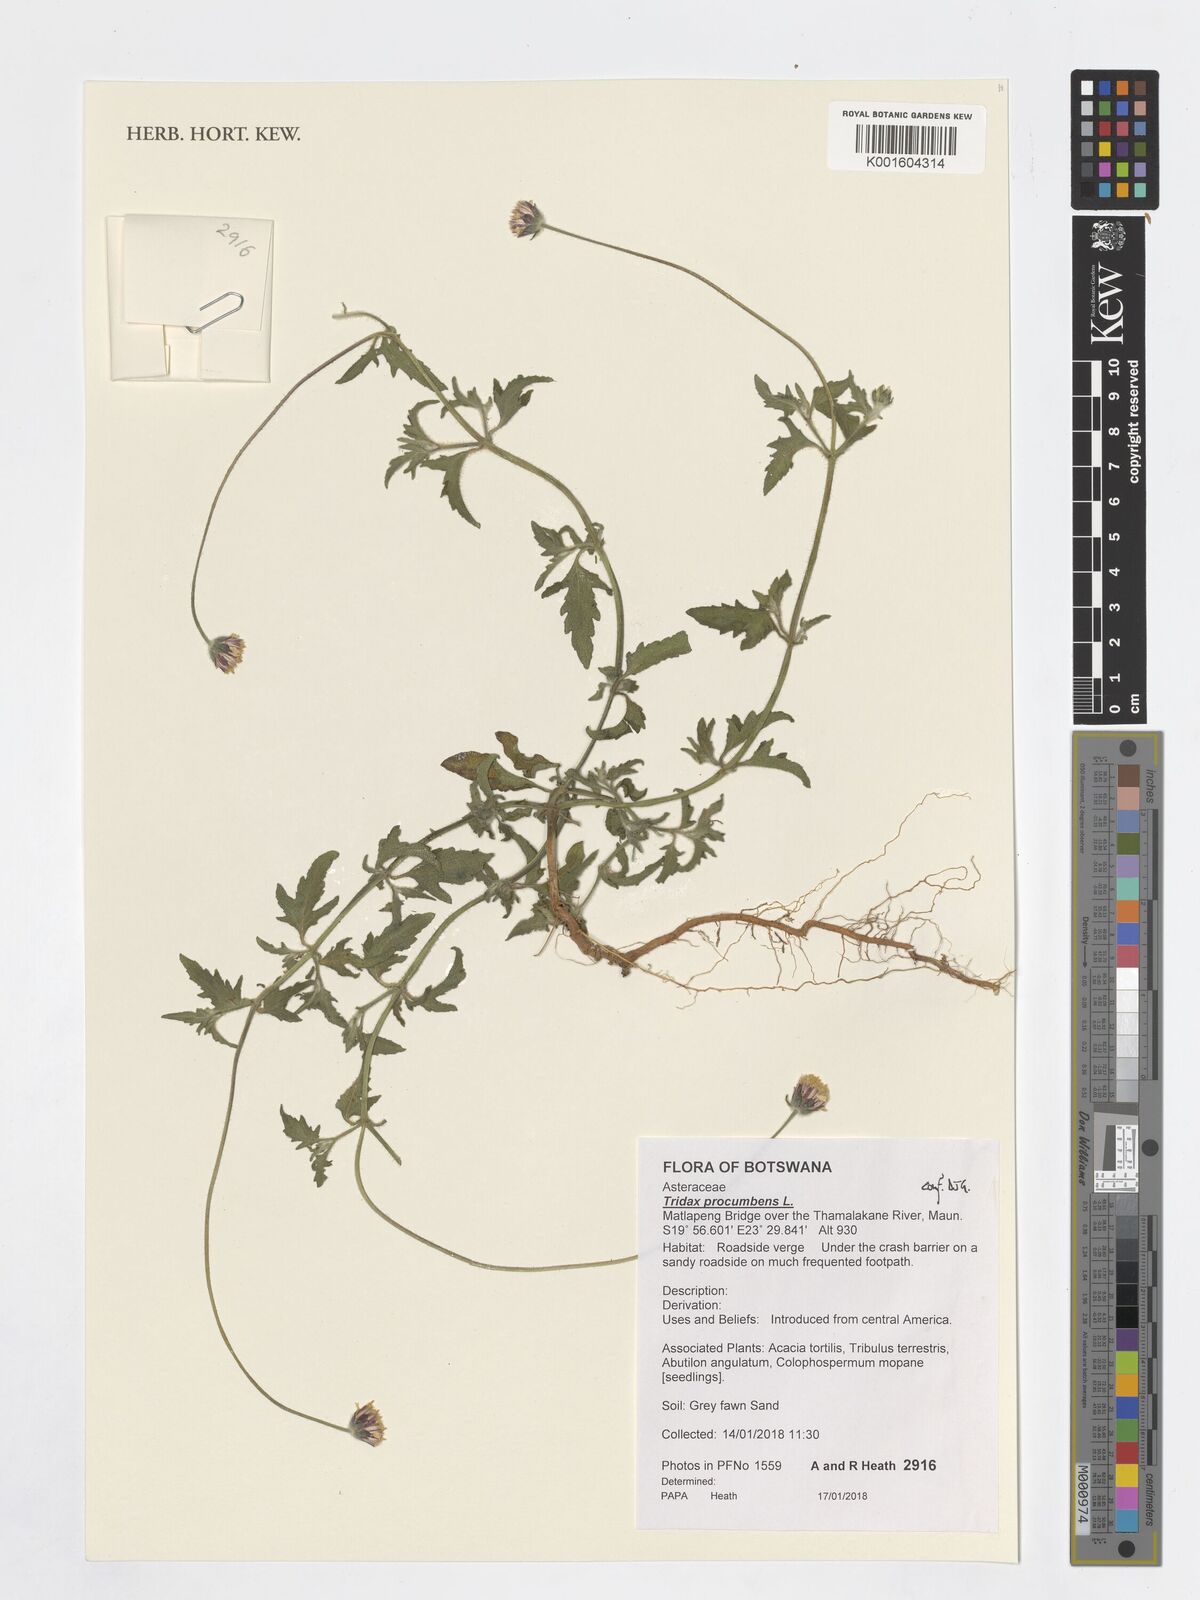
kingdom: Plantae
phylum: Tracheophyta
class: Magnoliopsida
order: Asterales
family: Asteraceae
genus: Tridax
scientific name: Tridax procumbens
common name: Coatbuttons
